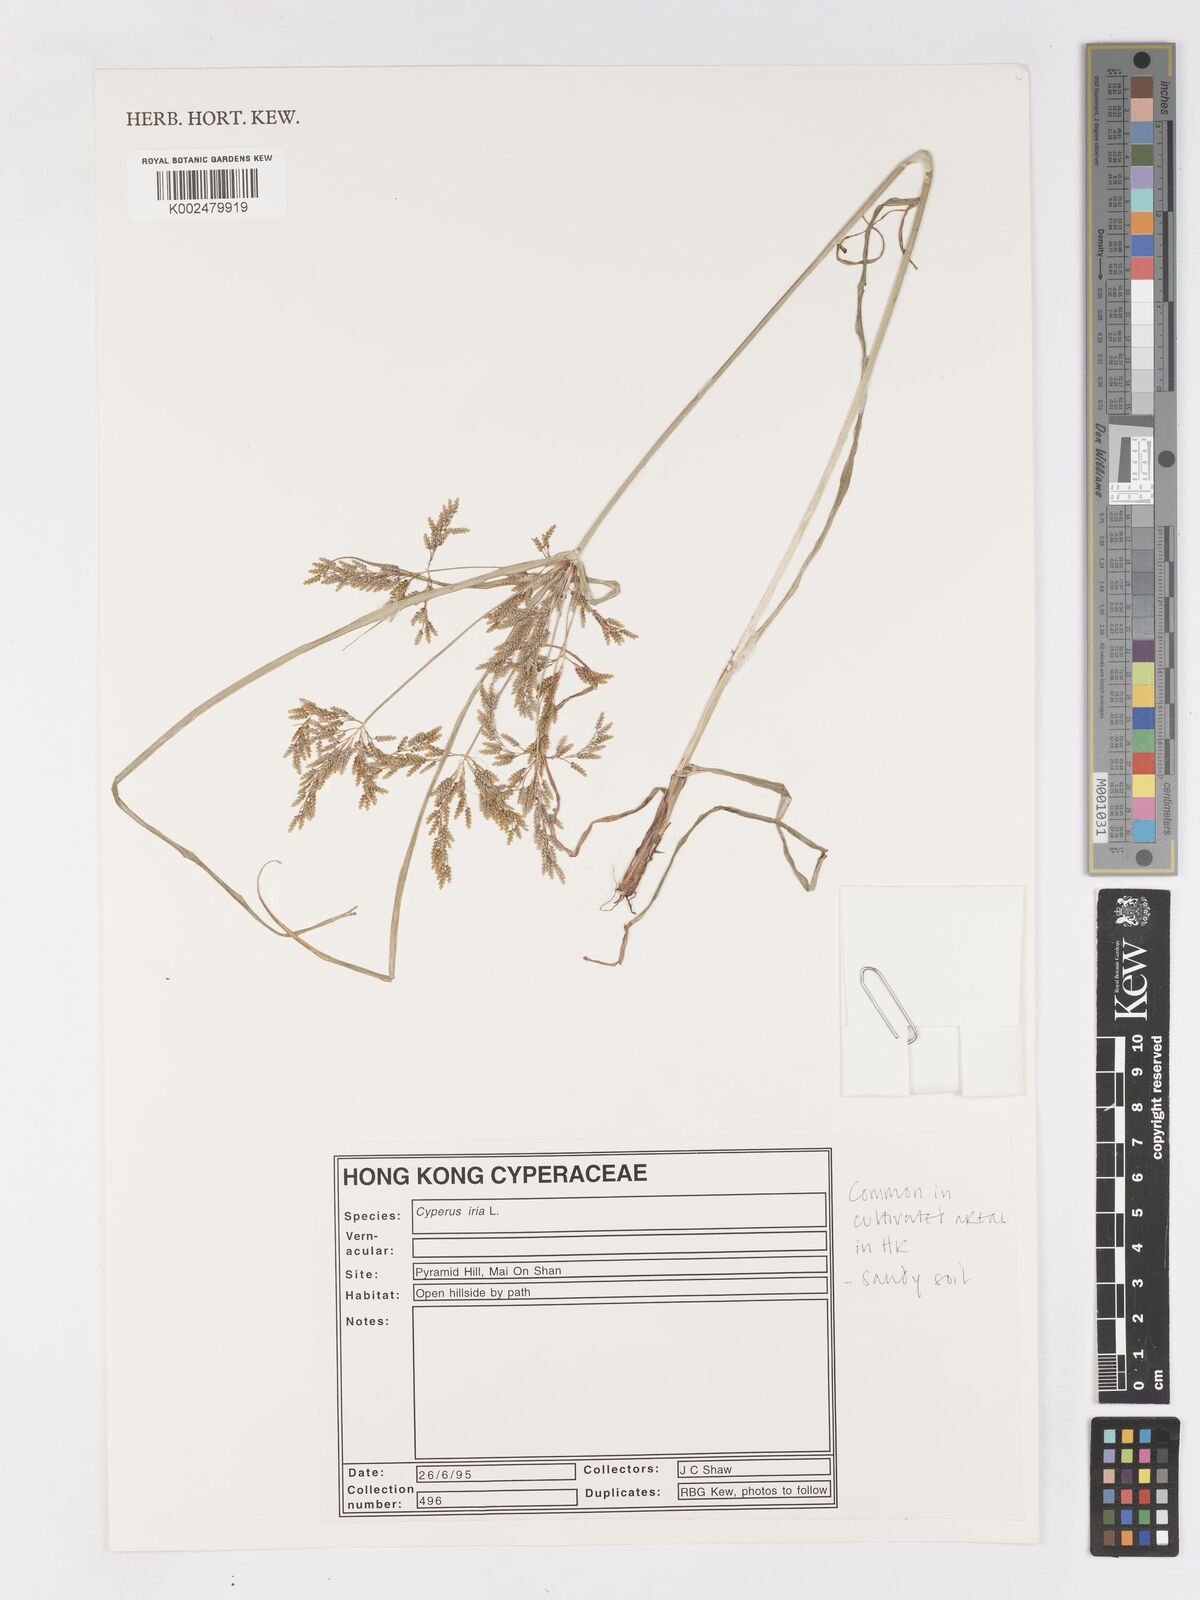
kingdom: Plantae
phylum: Tracheophyta
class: Liliopsida
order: Poales
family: Cyperaceae
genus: Cyperus
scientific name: Cyperus iria
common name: Ricefield flatsedge
